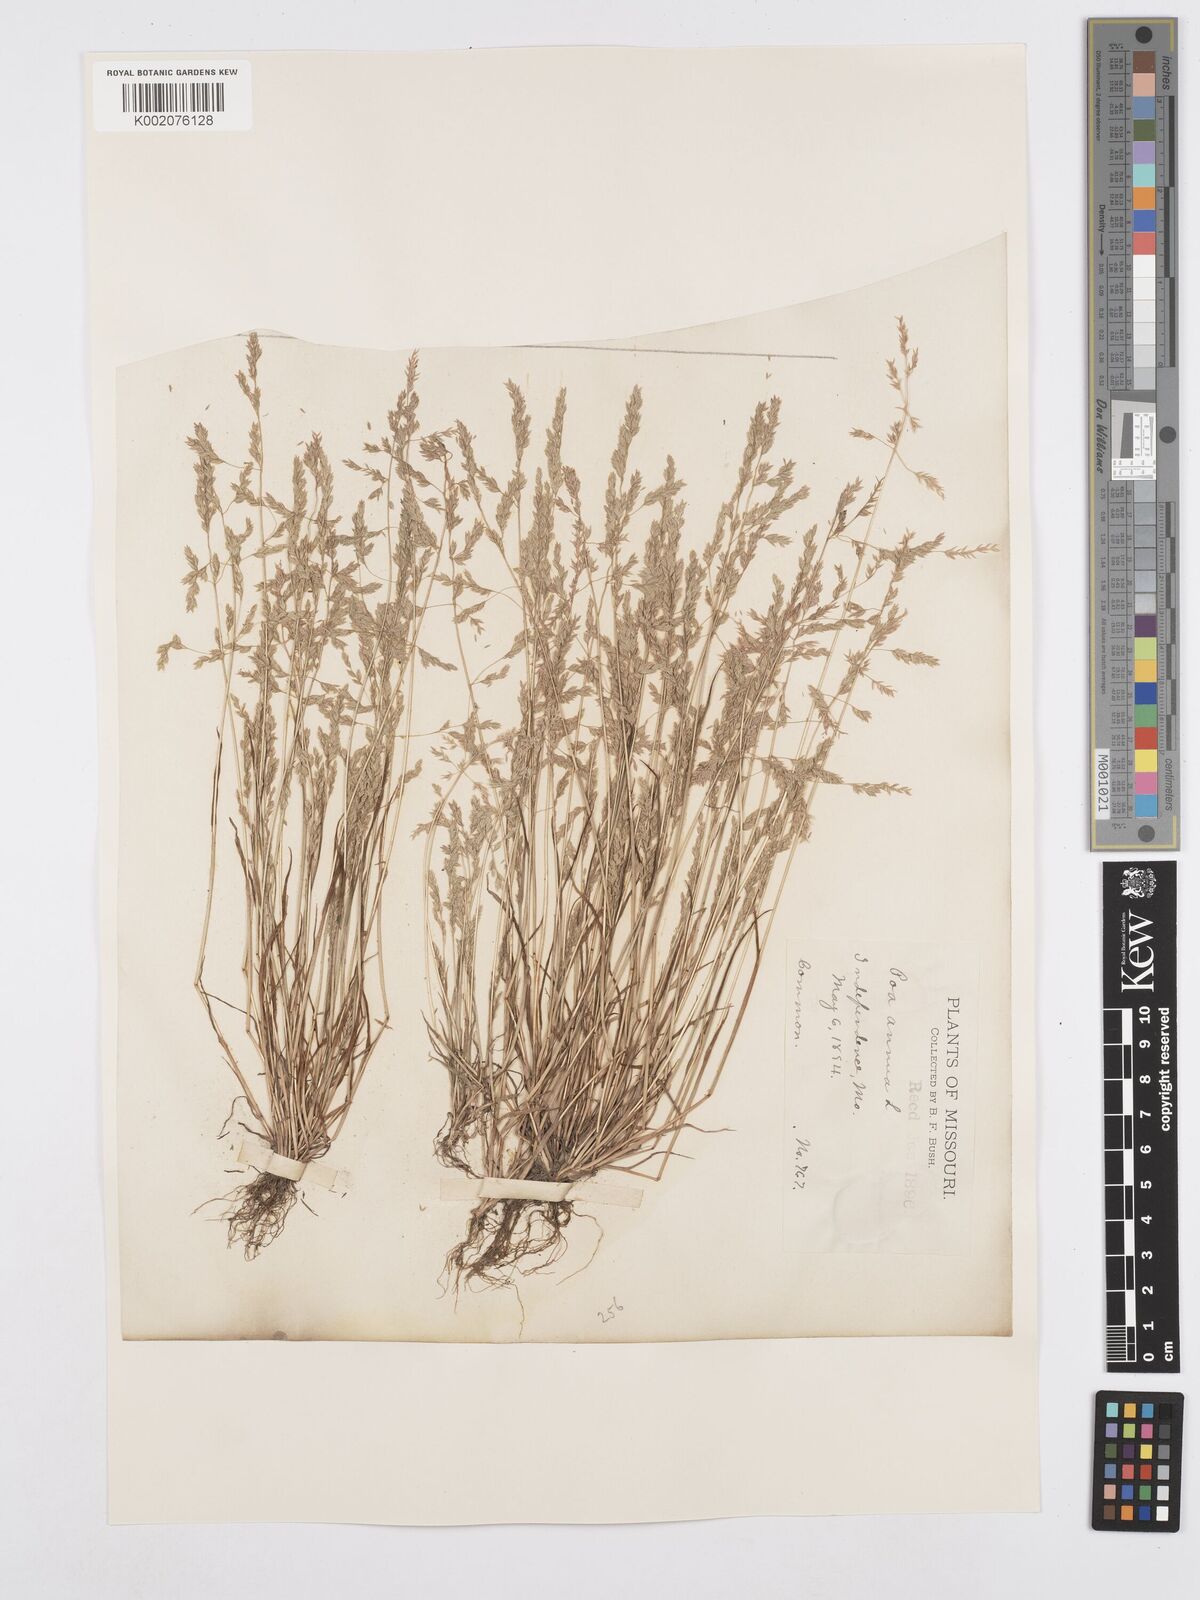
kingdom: Plantae
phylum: Tracheophyta
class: Liliopsida
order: Poales
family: Poaceae
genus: Poa
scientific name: Poa annua
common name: Annual bluegrass
